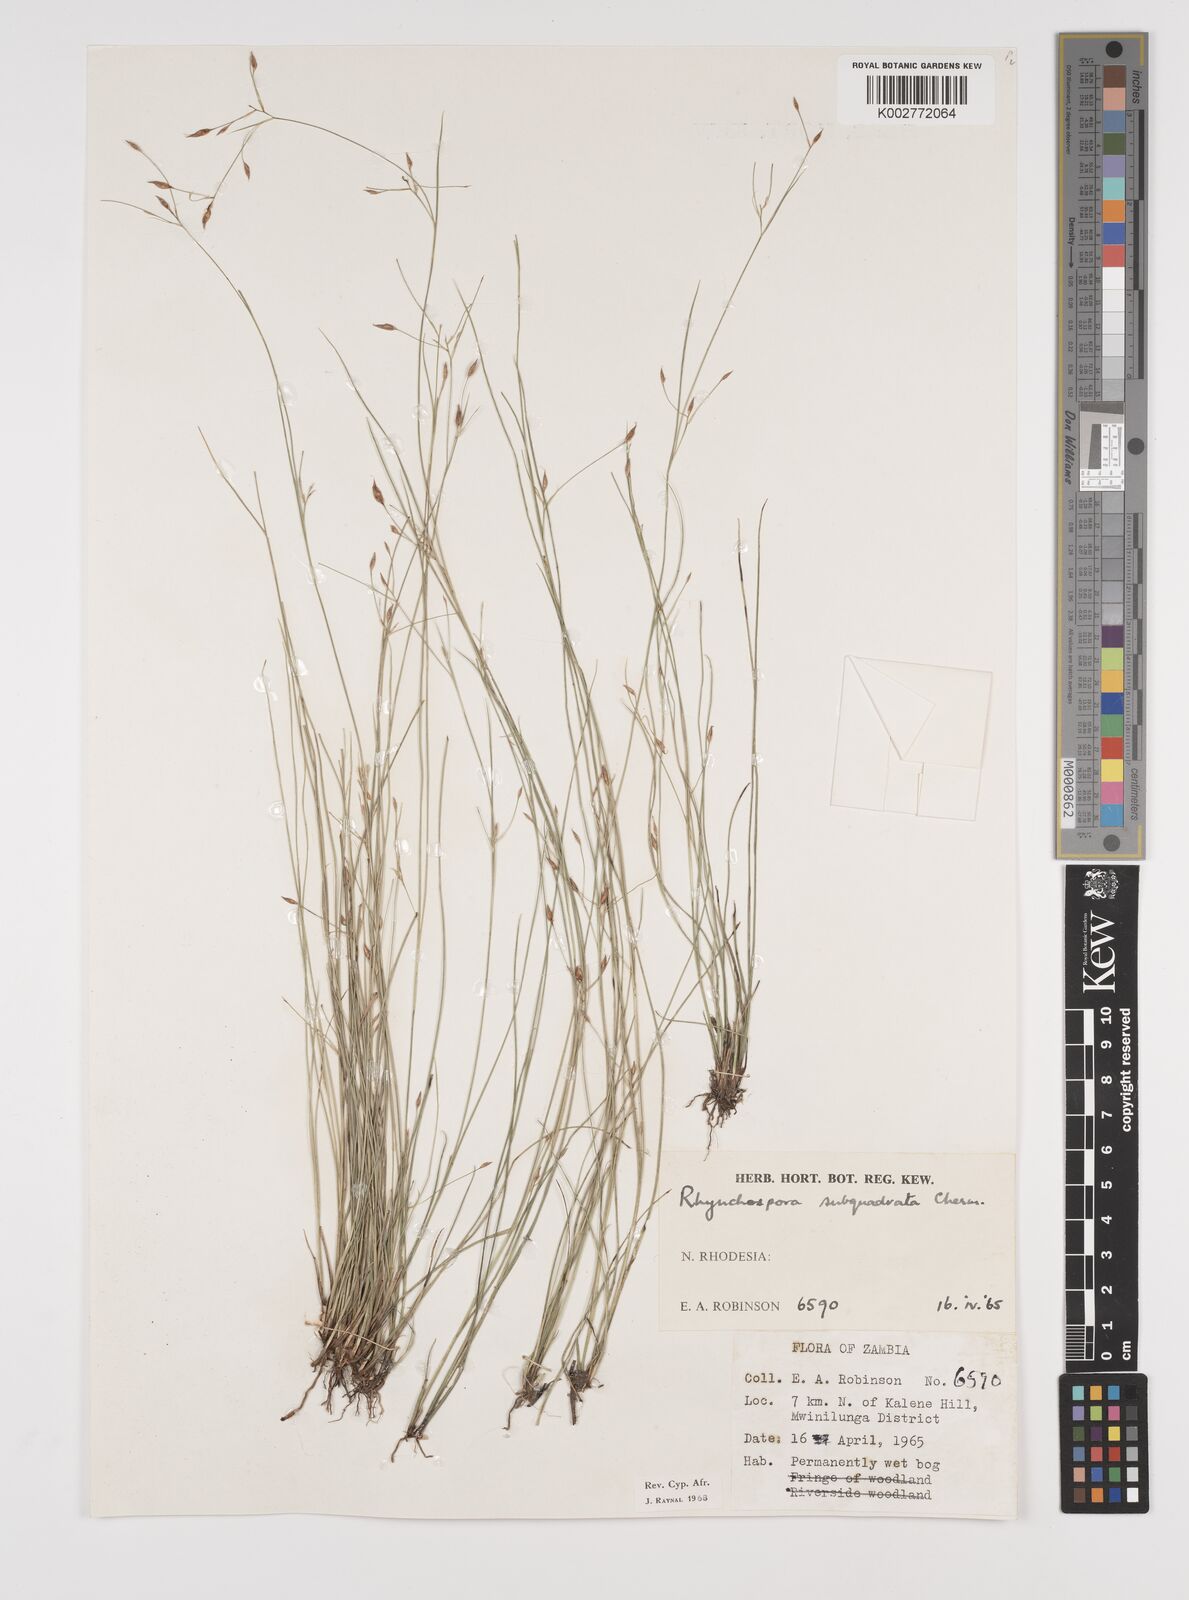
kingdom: Plantae
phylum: Tracheophyta
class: Liliopsida
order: Poales
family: Cyperaceae
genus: Rhynchospora
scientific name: Rhynchospora gracillima
